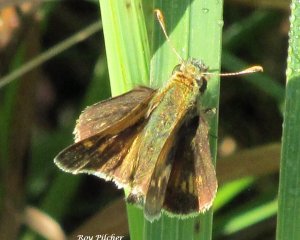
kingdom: Animalia
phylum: Arthropoda
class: Insecta
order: Lepidoptera
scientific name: Lepidoptera
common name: Butterflies
